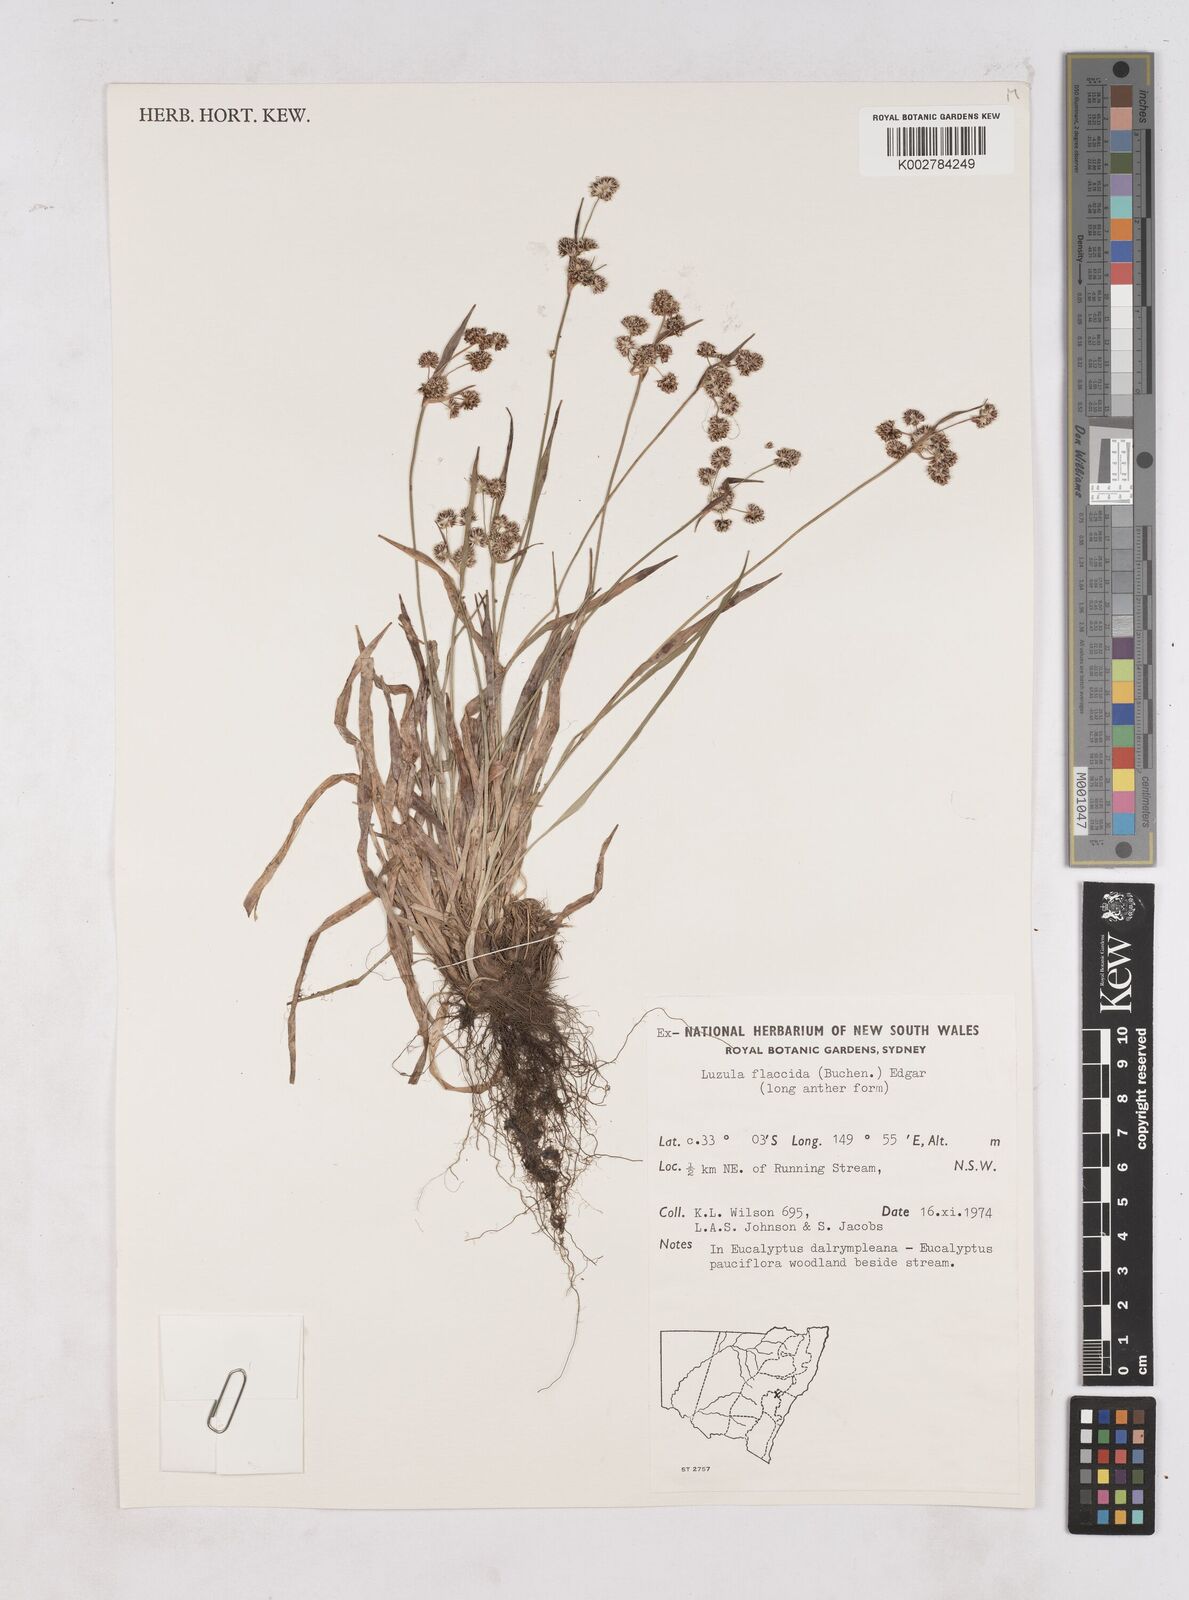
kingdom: Plantae
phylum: Tracheophyta
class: Liliopsida
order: Poales
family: Juncaceae
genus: Luzula
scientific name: Luzula flaccida
